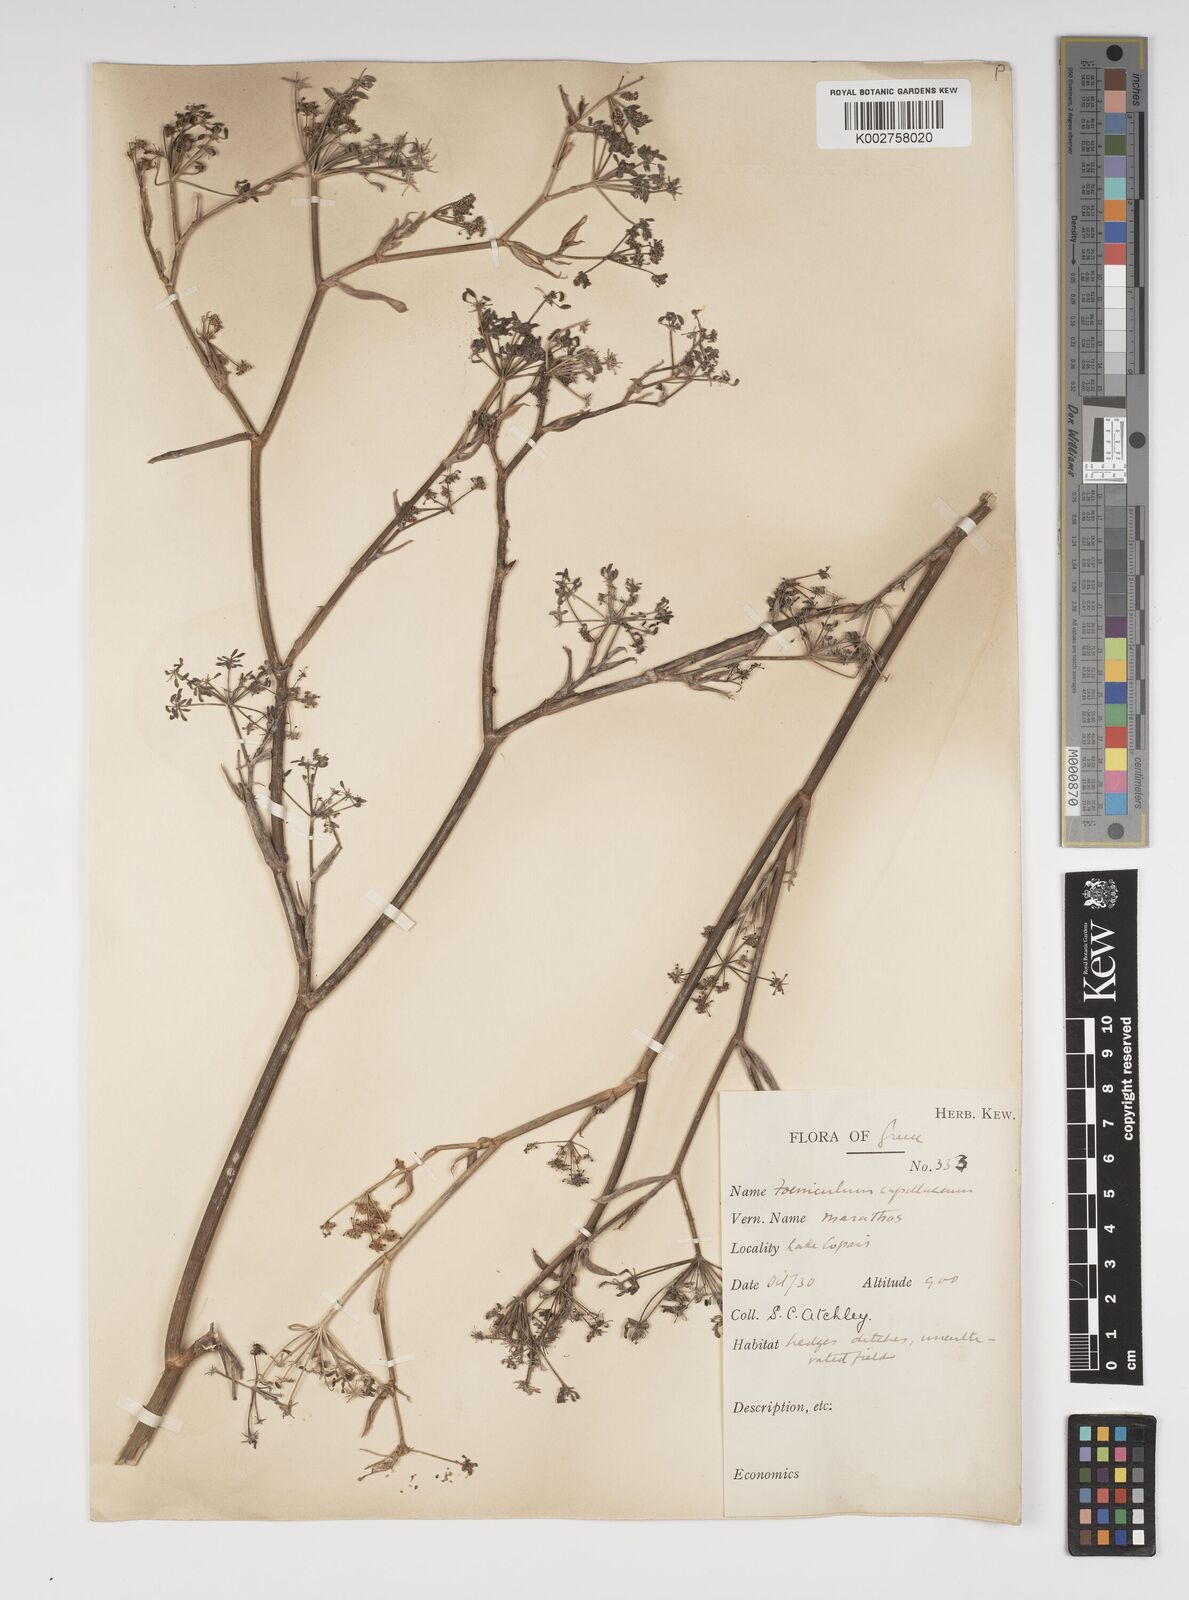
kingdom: Plantae
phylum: Tracheophyta
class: Magnoliopsida
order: Apiales
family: Apiaceae
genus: Foeniculum
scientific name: Foeniculum vulgare
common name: Fennel
